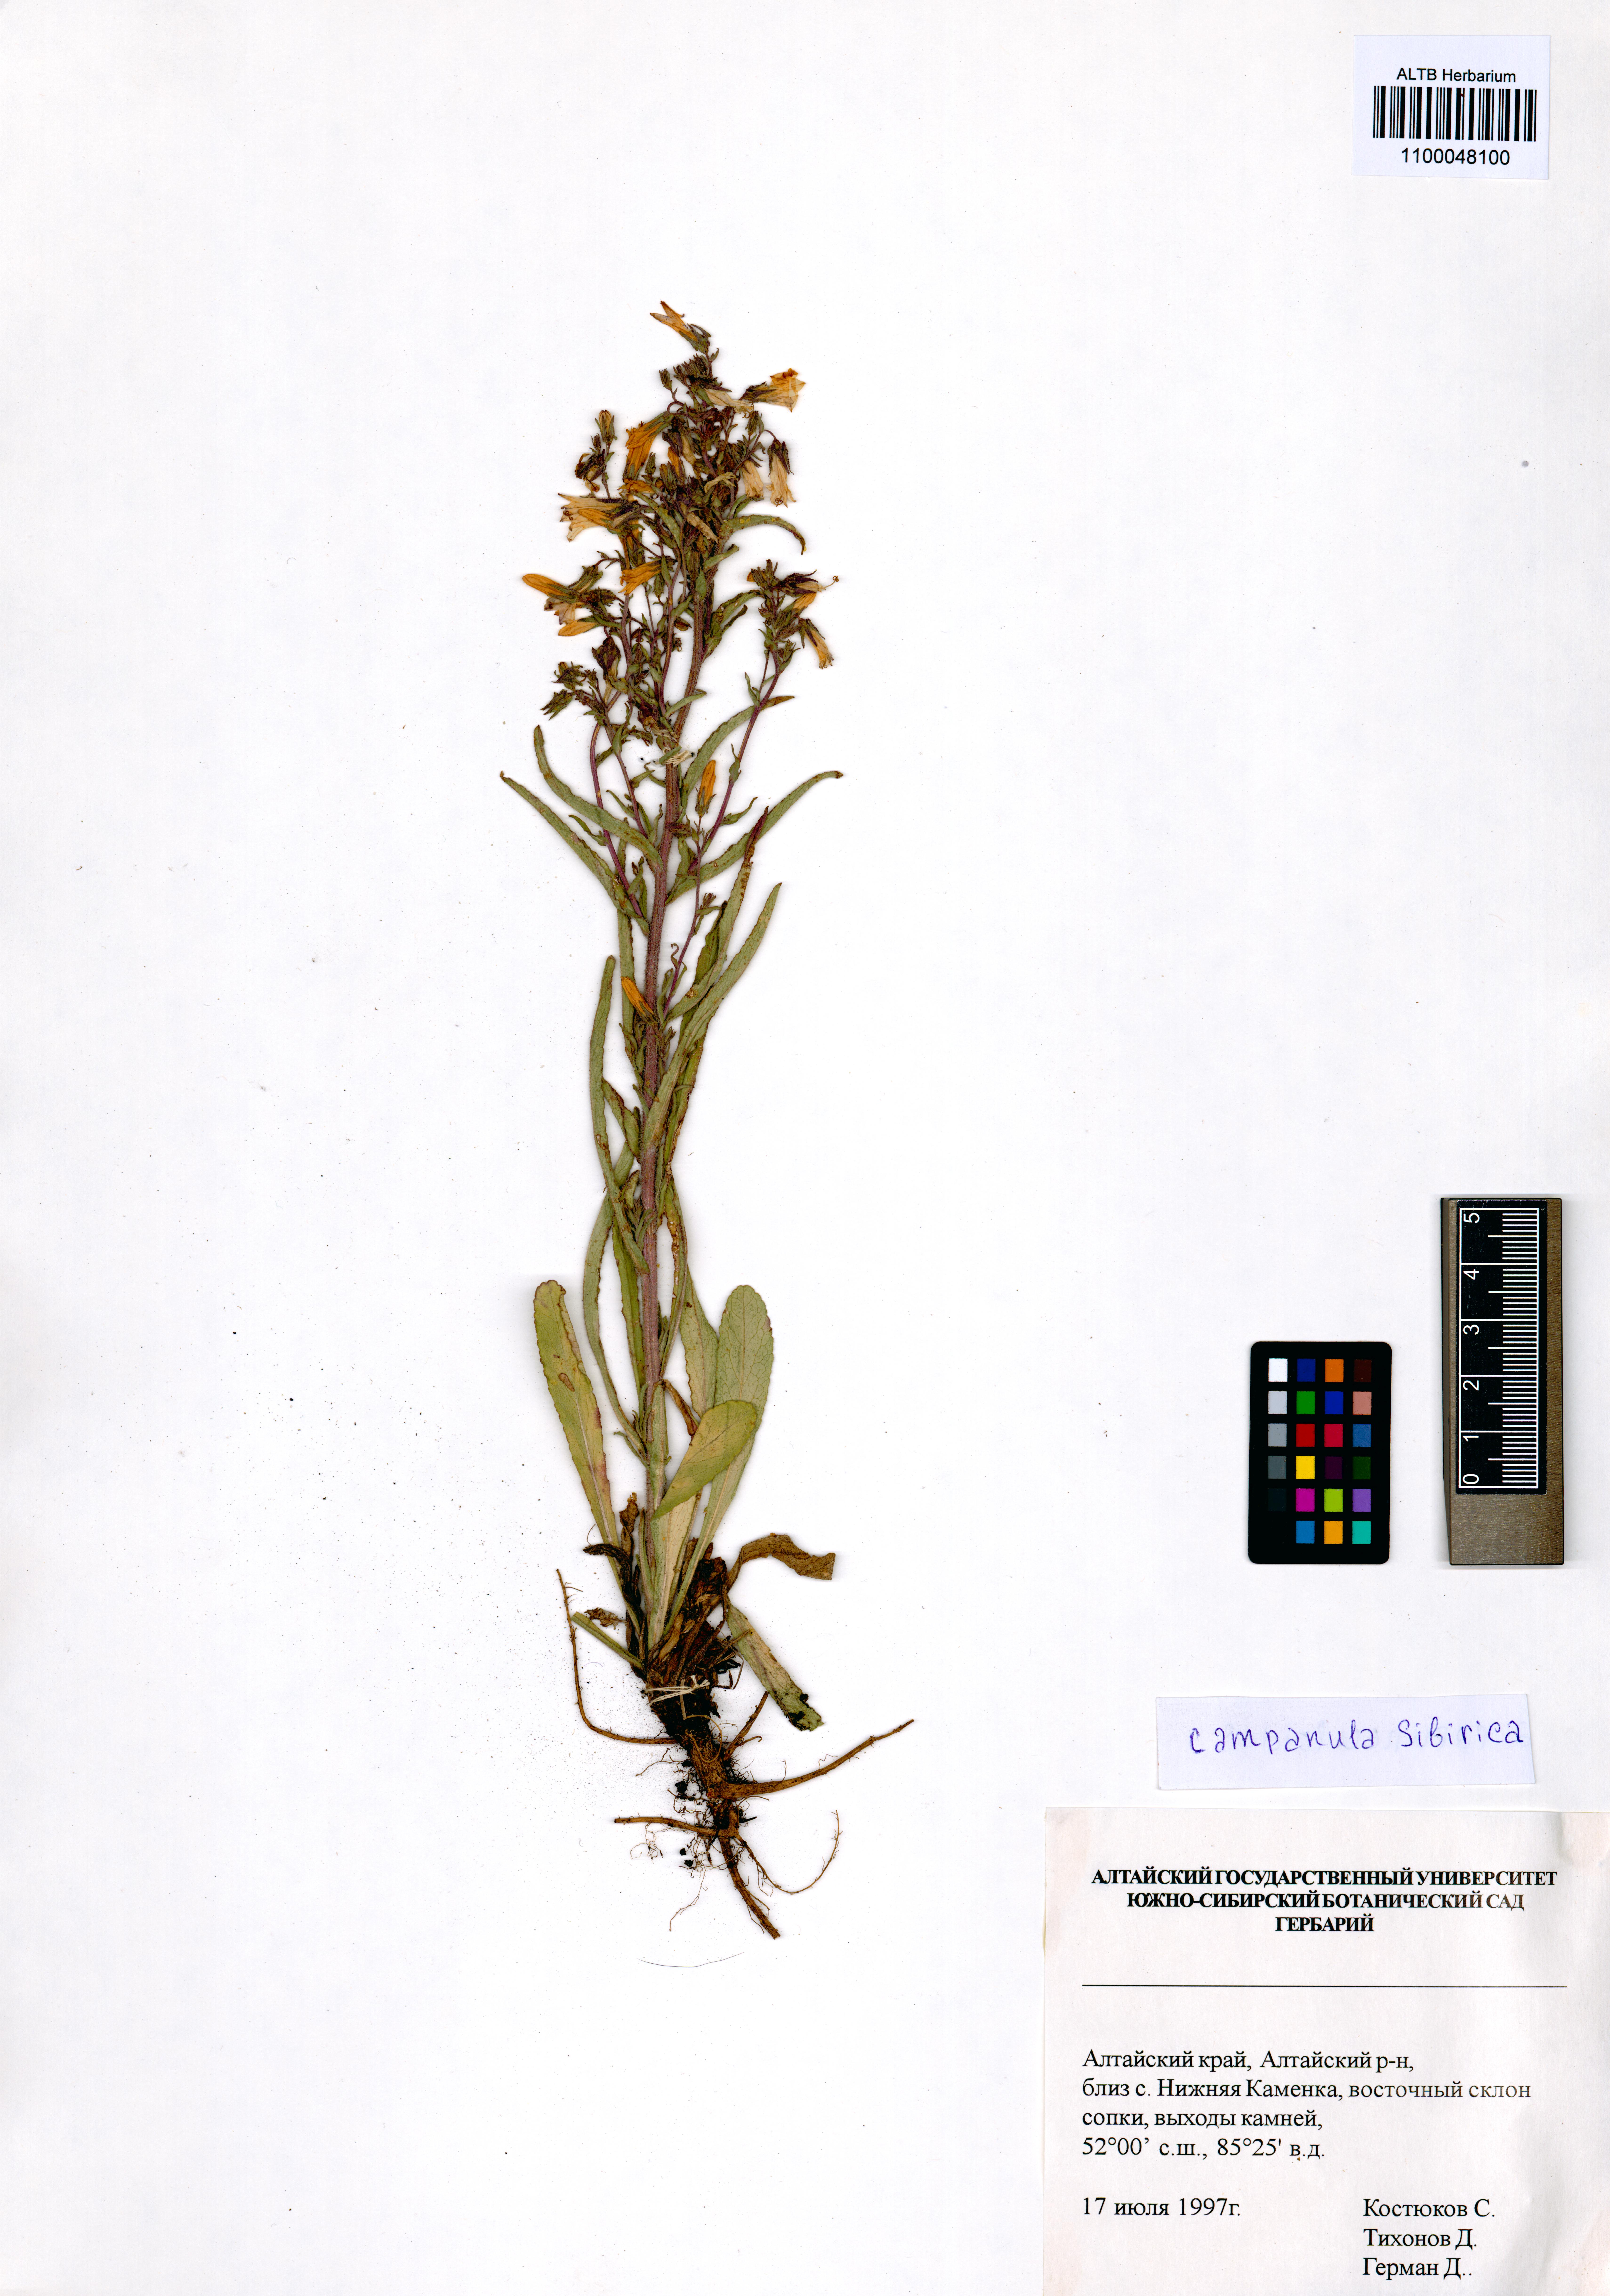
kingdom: Plantae
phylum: Tracheophyta
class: Magnoliopsida
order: Asterales
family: Campanulaceae
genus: Campanula
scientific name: Campanula sibirica
